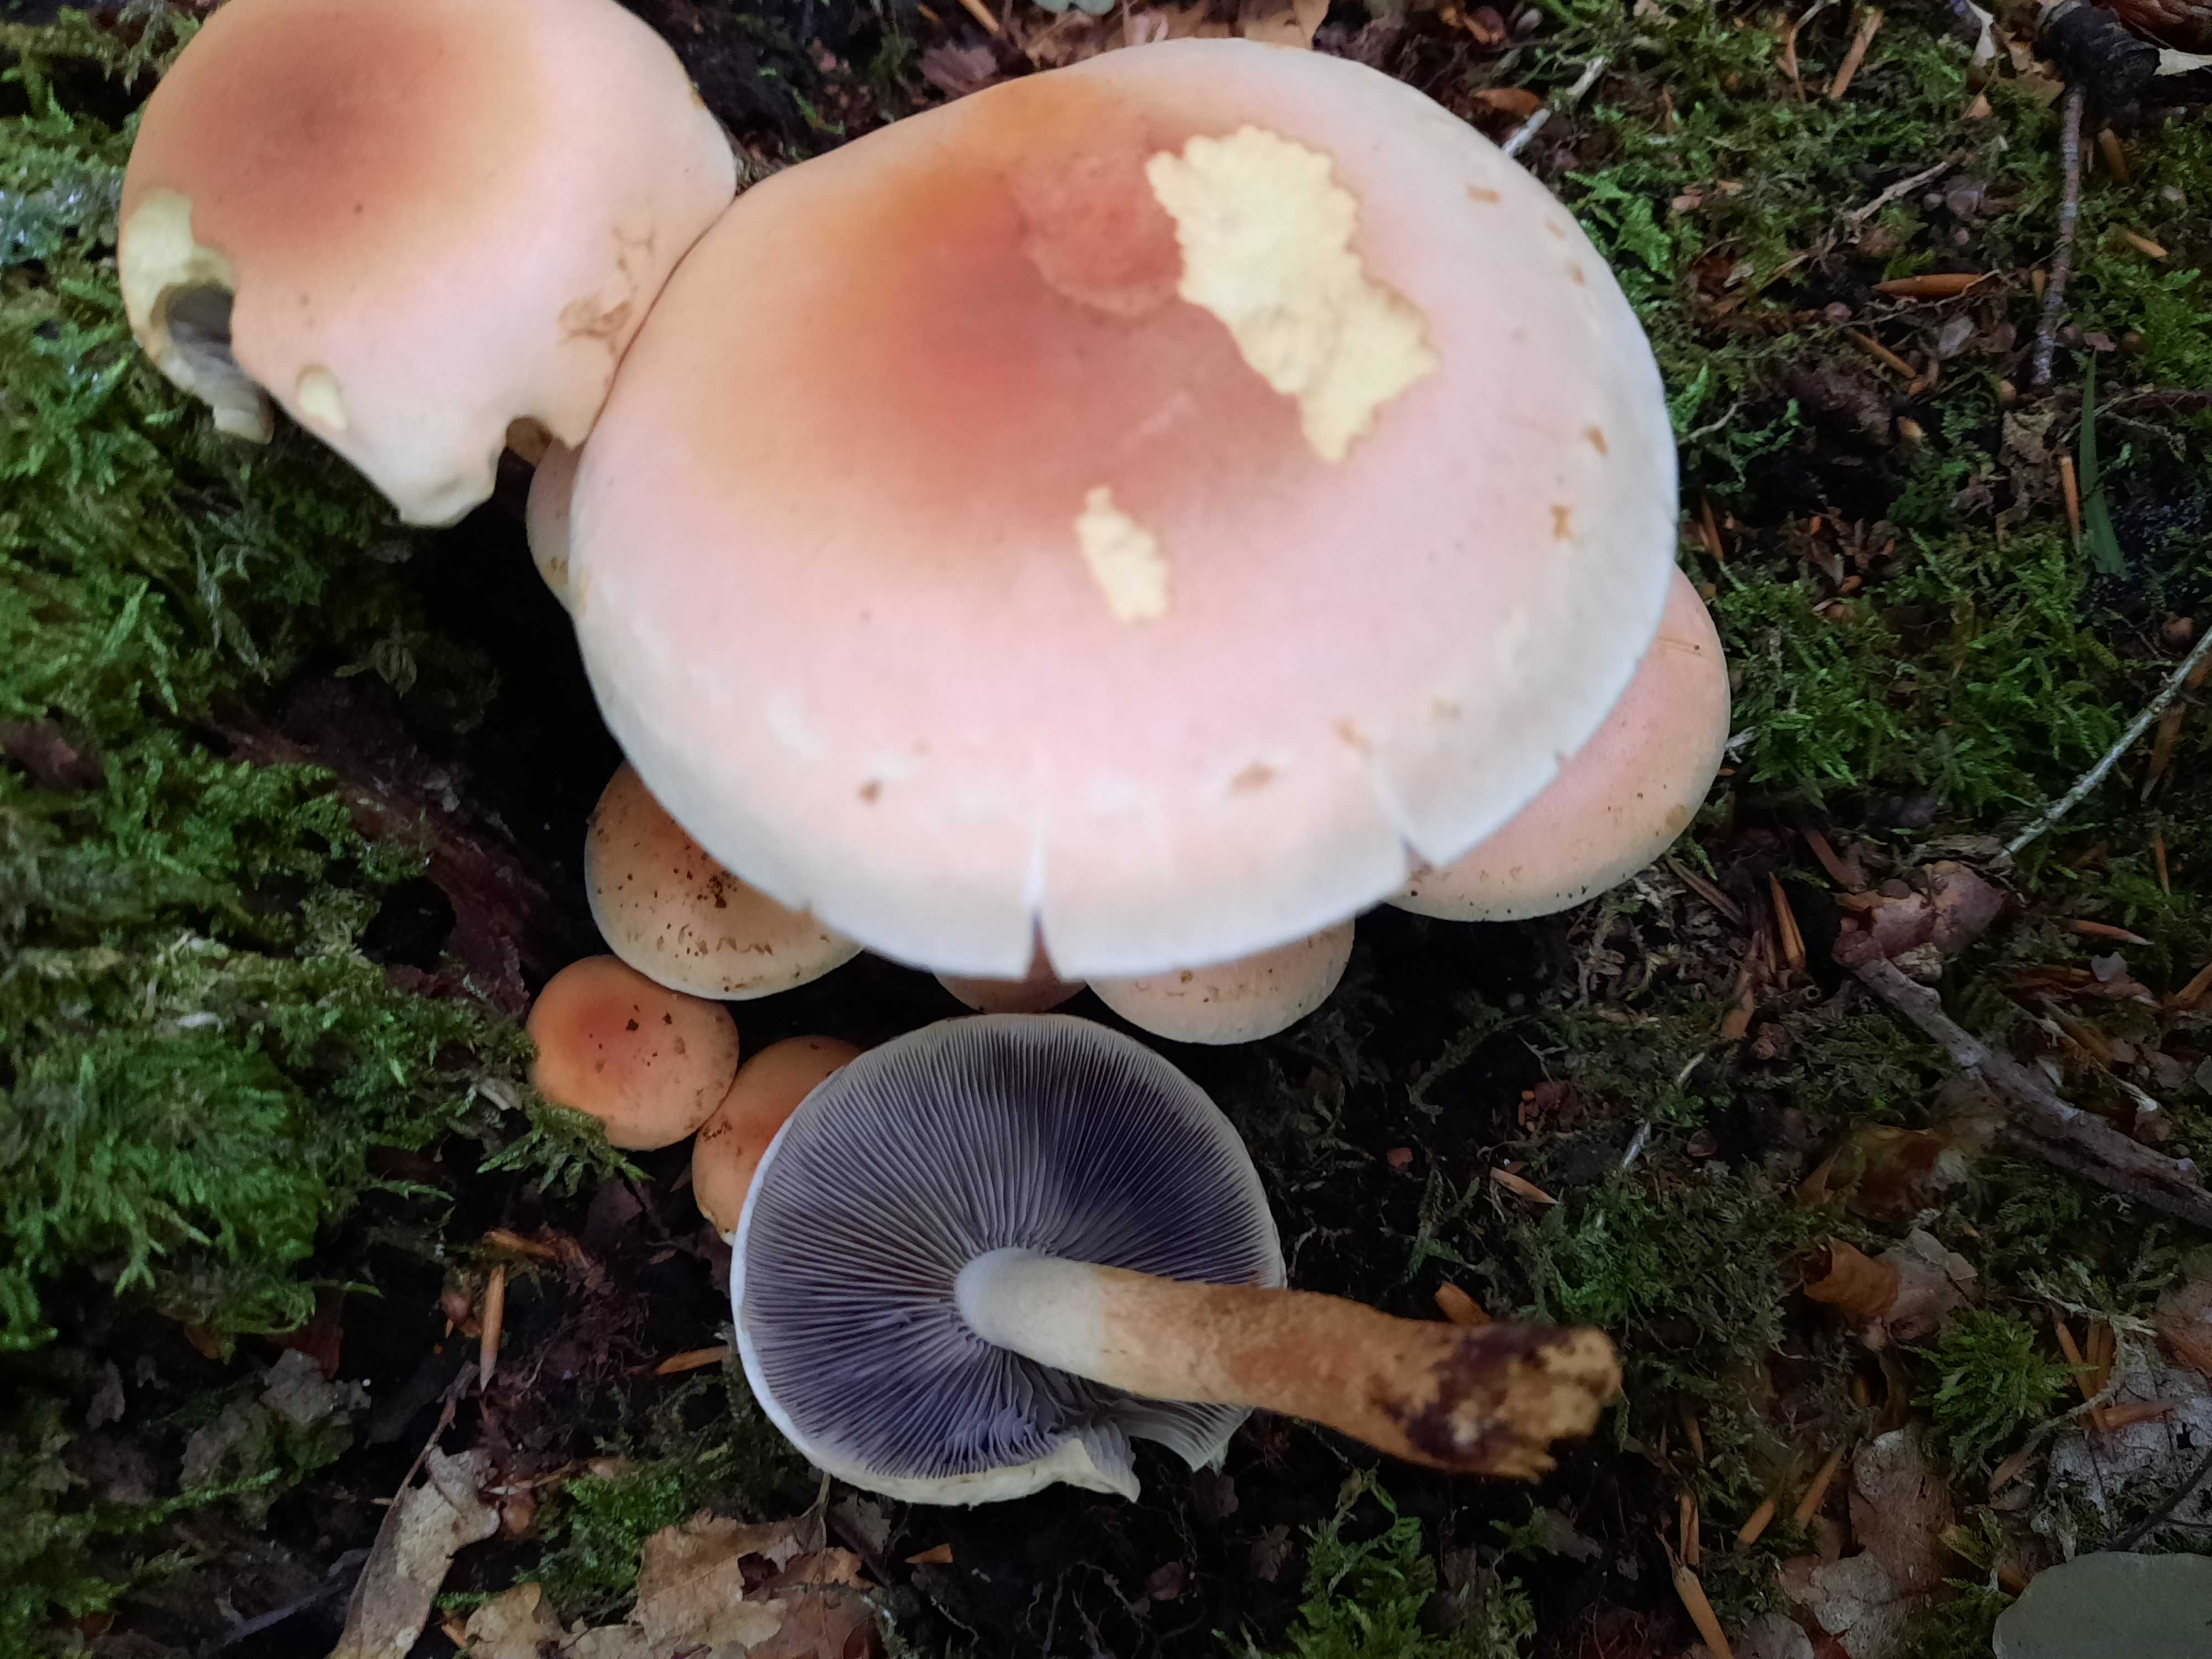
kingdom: Fungi
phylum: Basidiomycota
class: Agaricomycetes
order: Agaricales
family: Strophariaceae
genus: Hypholoma
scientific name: Hypholoma lateritium
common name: teglrød svovlhat
